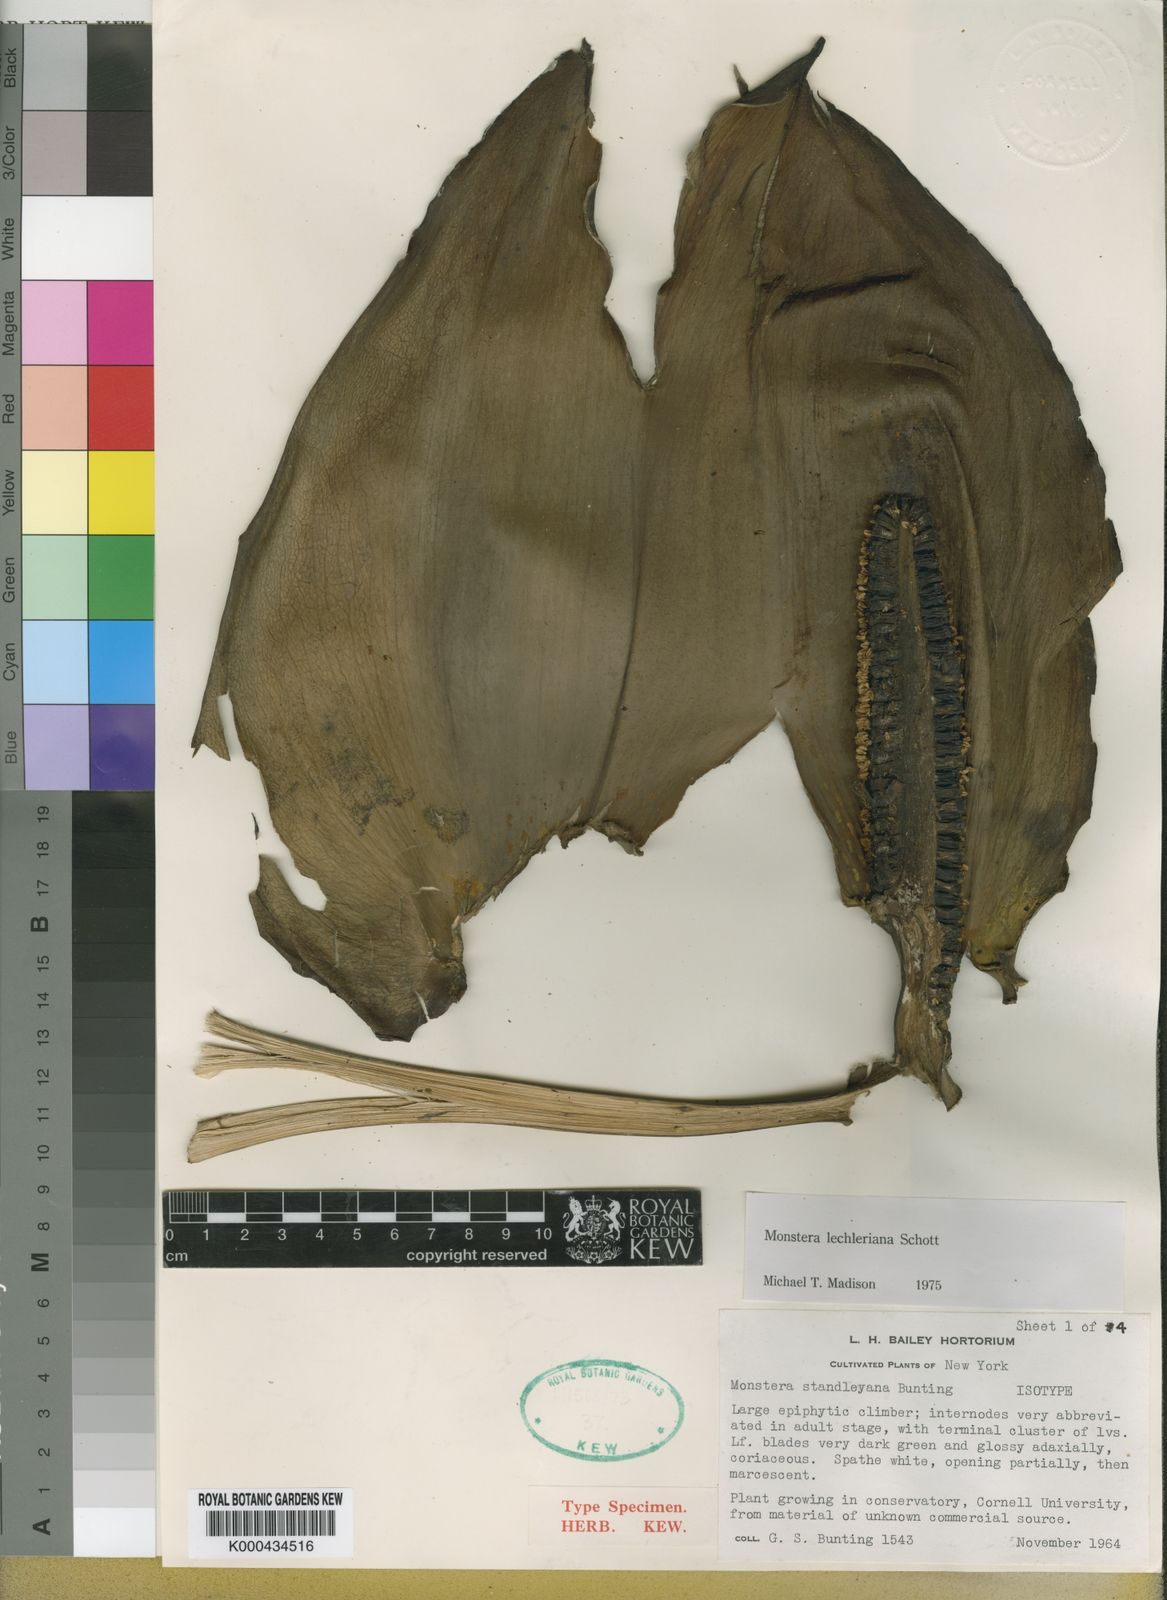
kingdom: Plantae
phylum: Tracheophyta
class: Liliopsida
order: Alismatales
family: Araceae
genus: Monstera
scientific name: Monstera lechleriana
